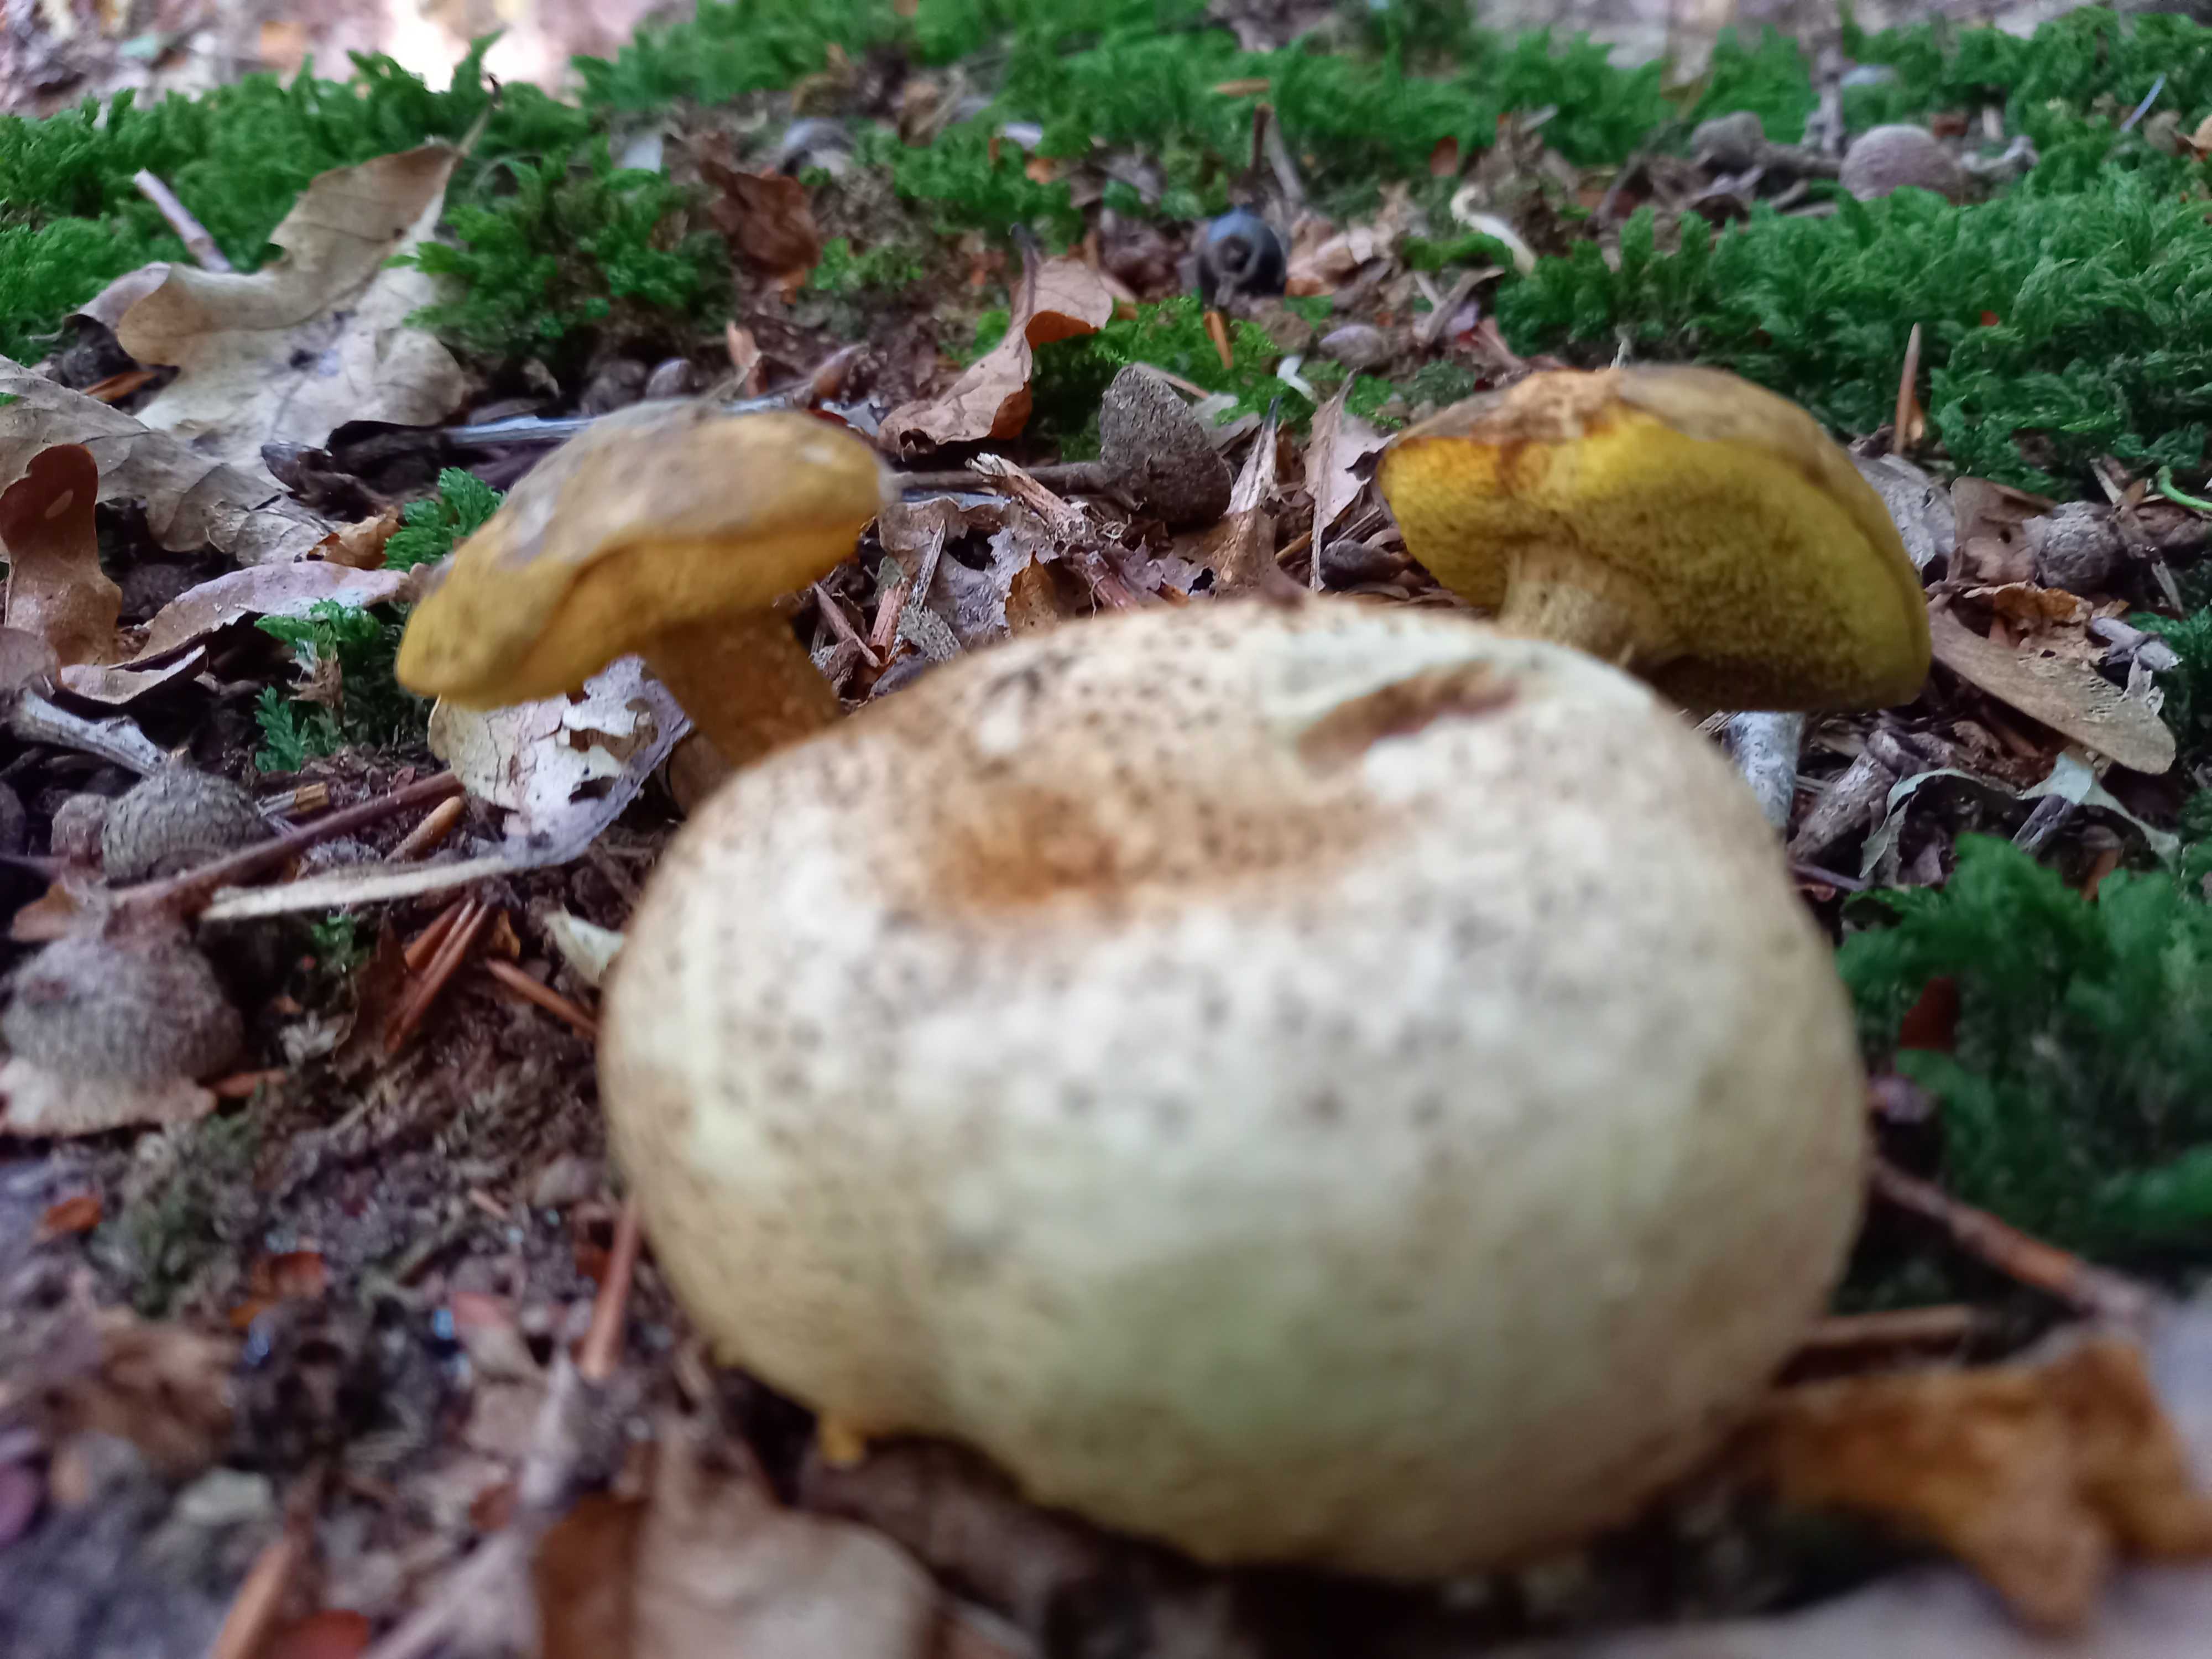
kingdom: Fungi
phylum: Basidiomycota
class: Agaricomycetes
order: Boletales
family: Boletaceae
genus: Pseudoboletus
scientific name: Pseudoboletus parasiticus
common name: snyltende rørhat
